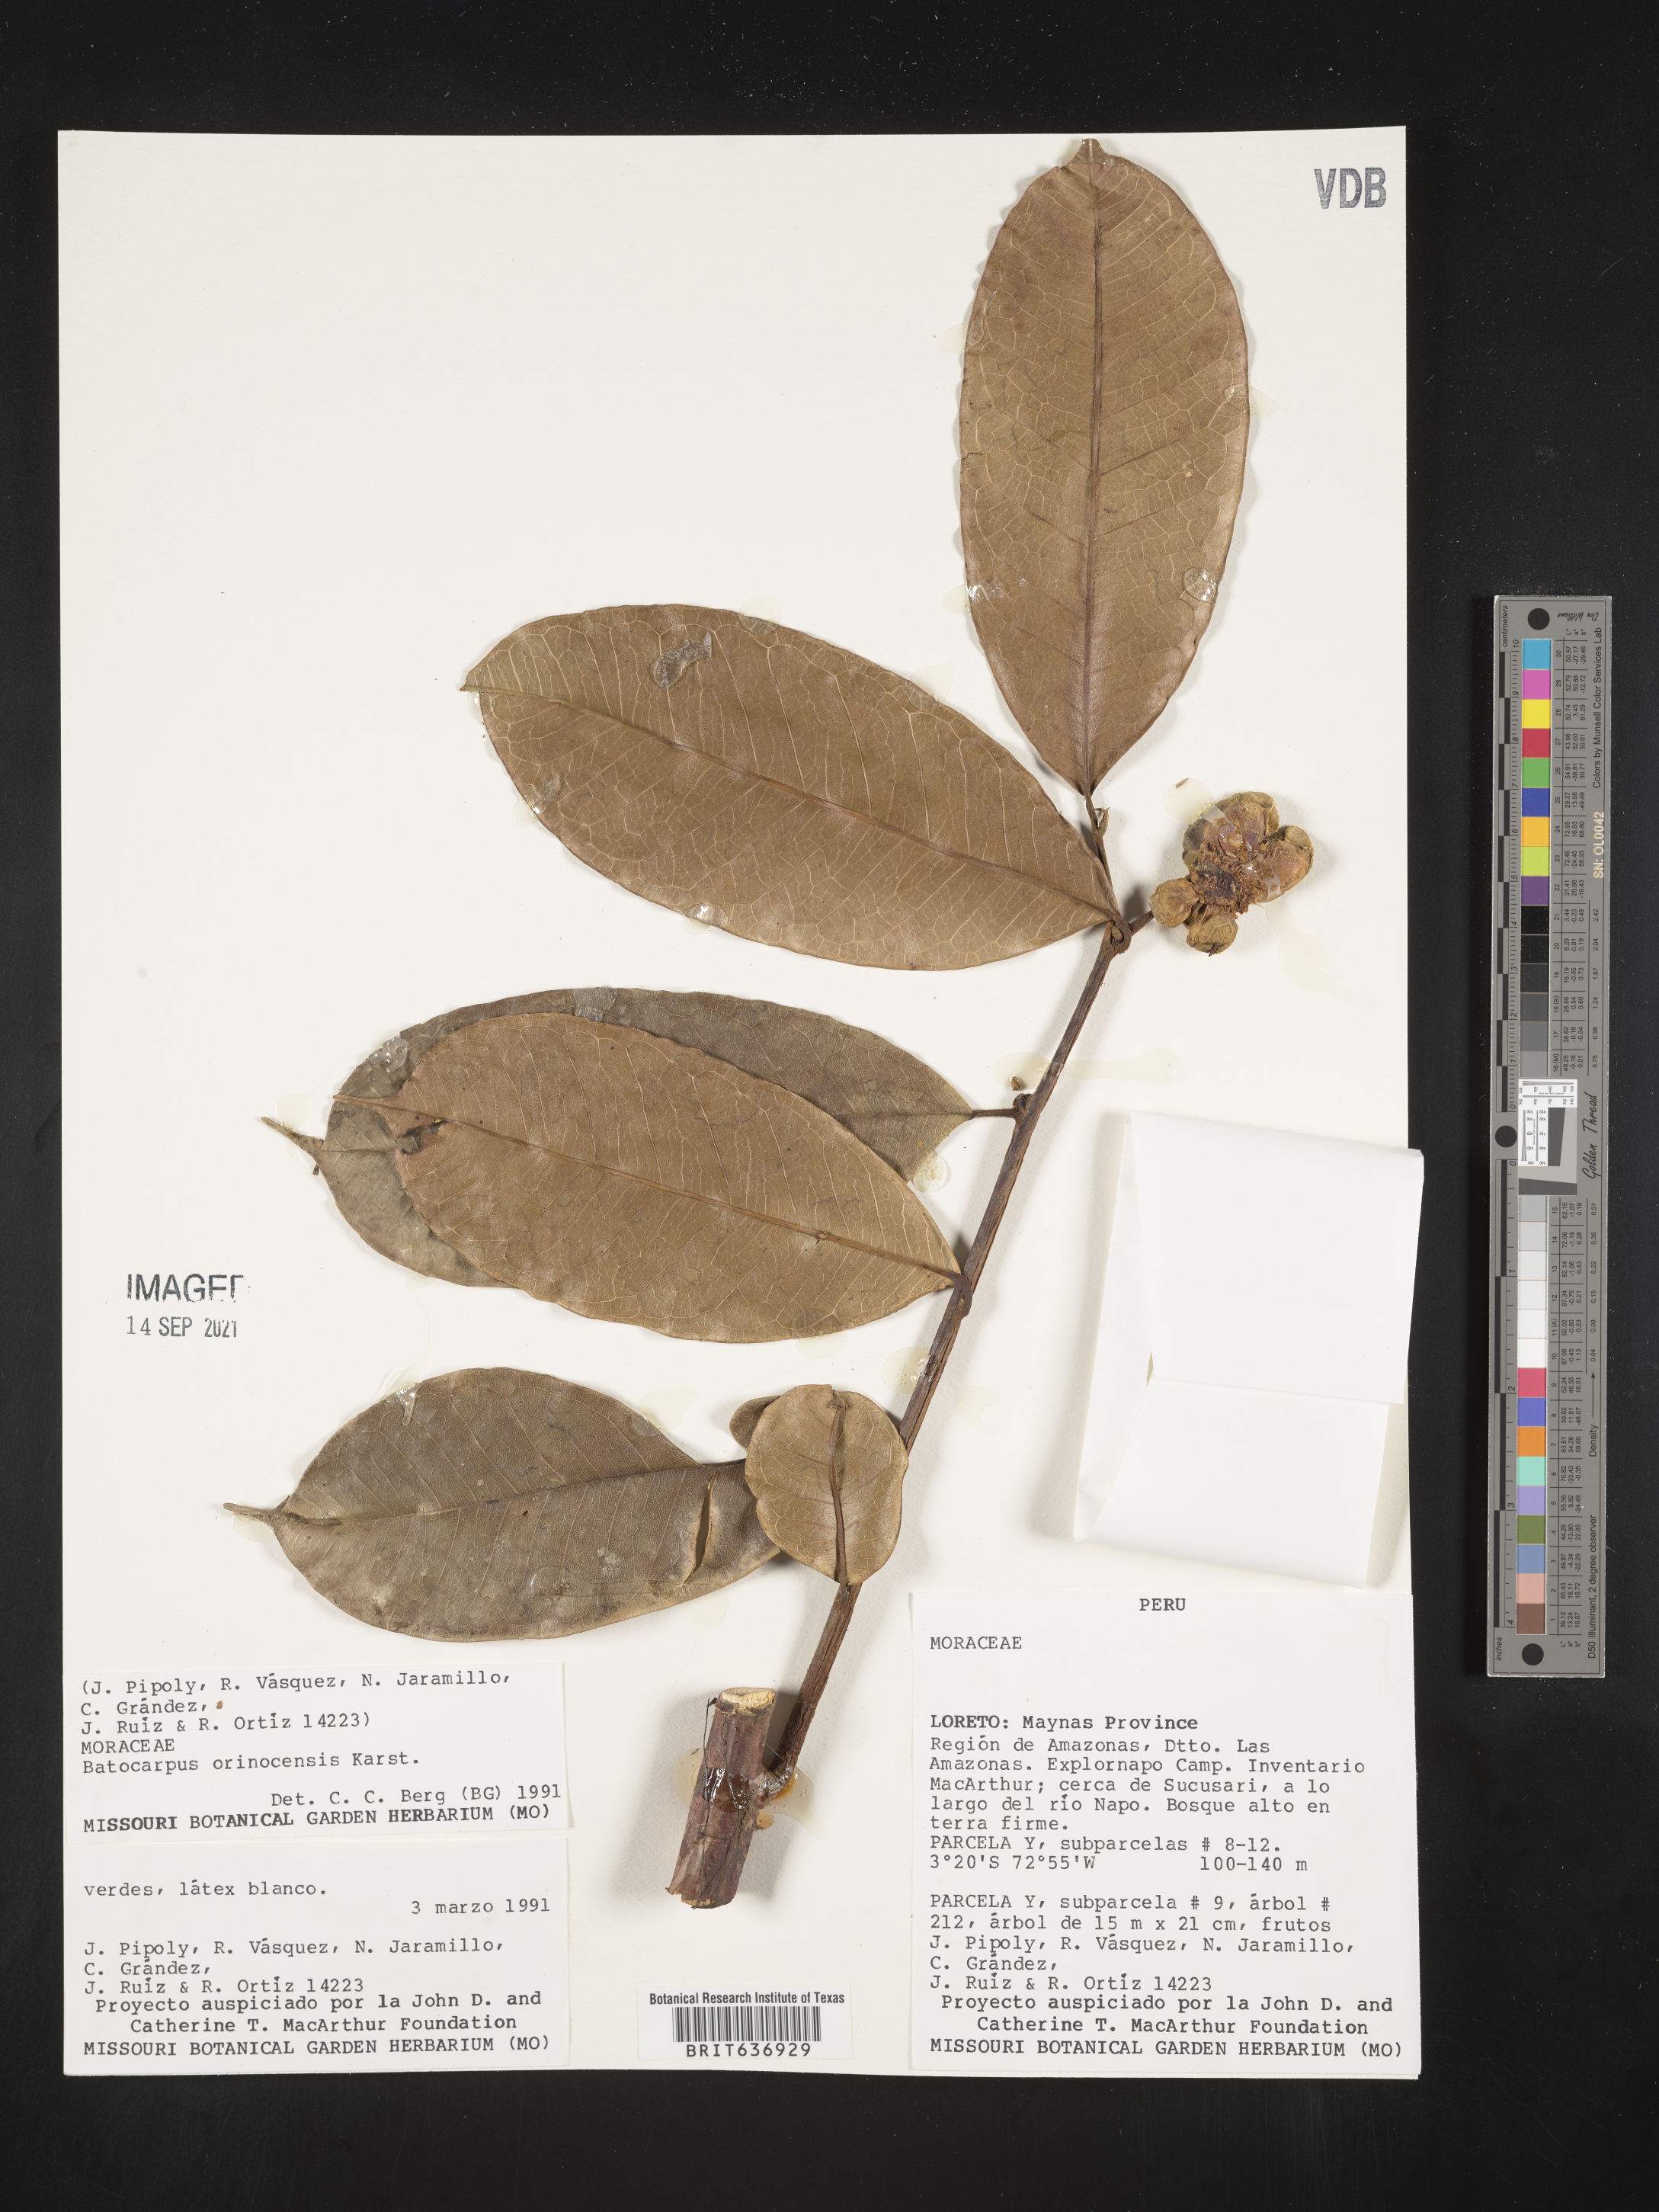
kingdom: Plantae
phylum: Tracheophyta
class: Magnoliopsida
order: Rosales
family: Moraceae
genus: Batocarpus
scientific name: Batocarpus
